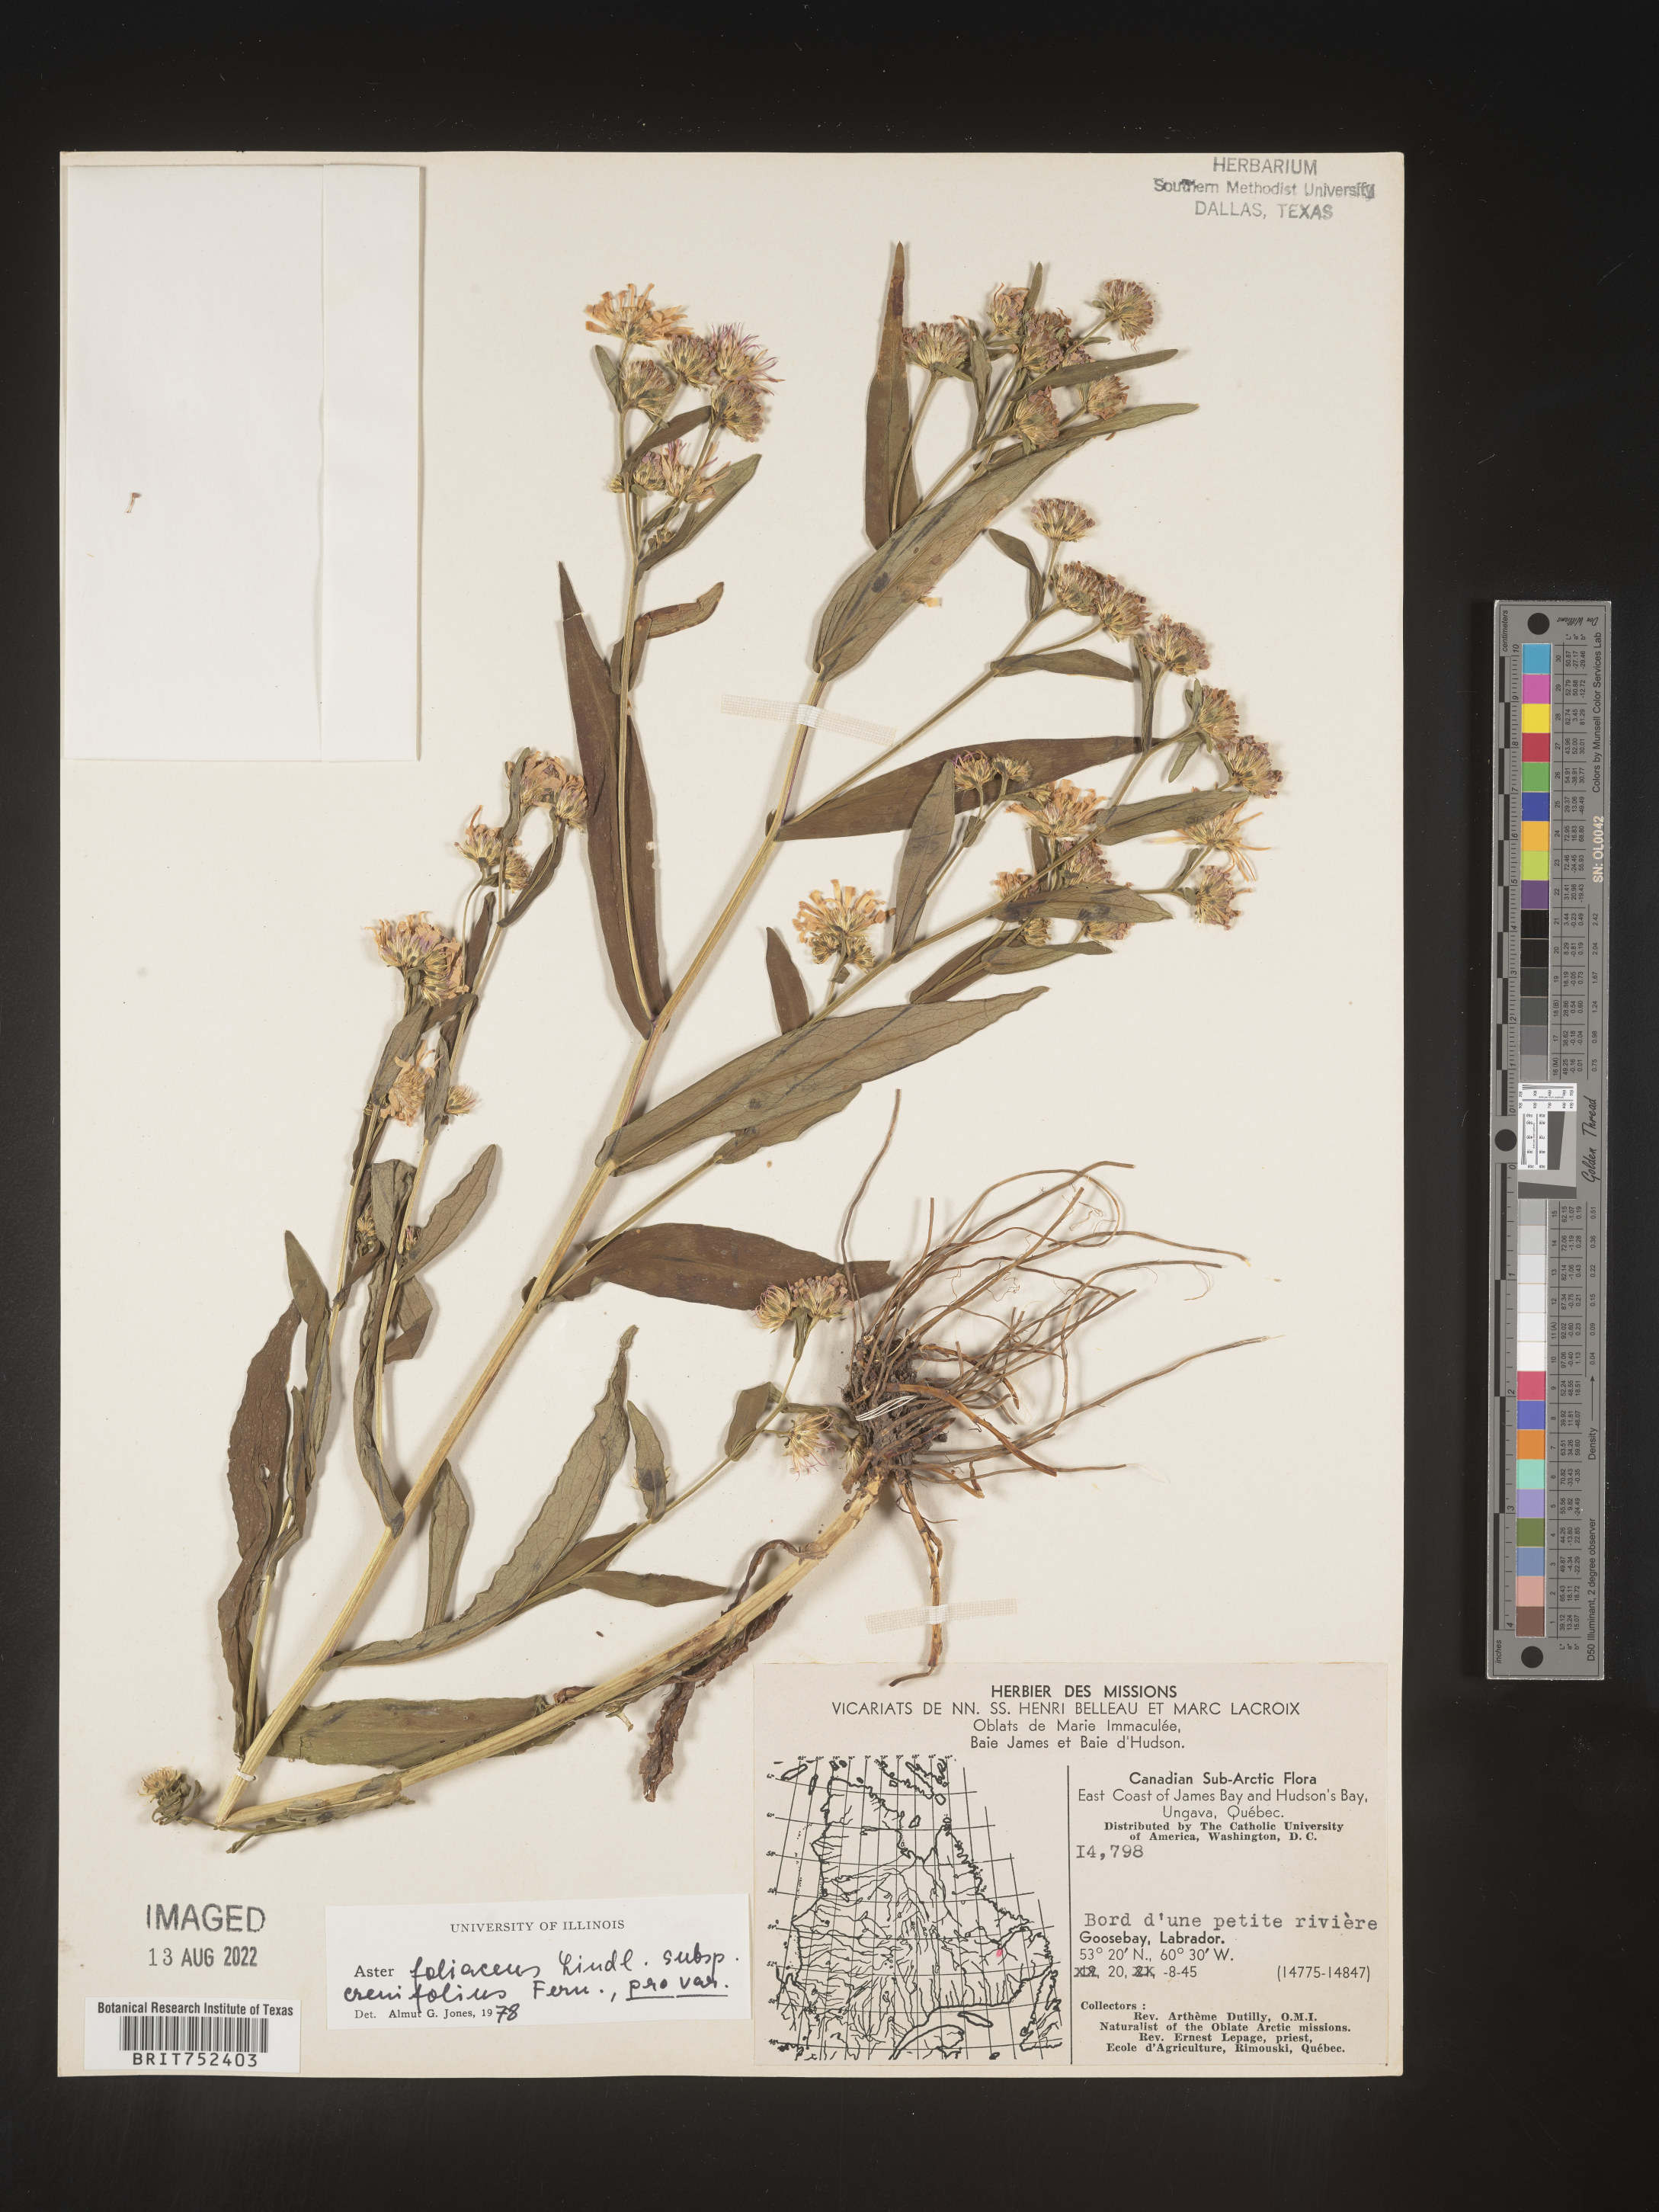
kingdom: Plantae
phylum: Tracheophyta
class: Magnoliopsida
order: Asterales
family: Asteraceae
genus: Symphyotrichum
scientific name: Symphyotrichum foliaceum
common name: Leafy aster
